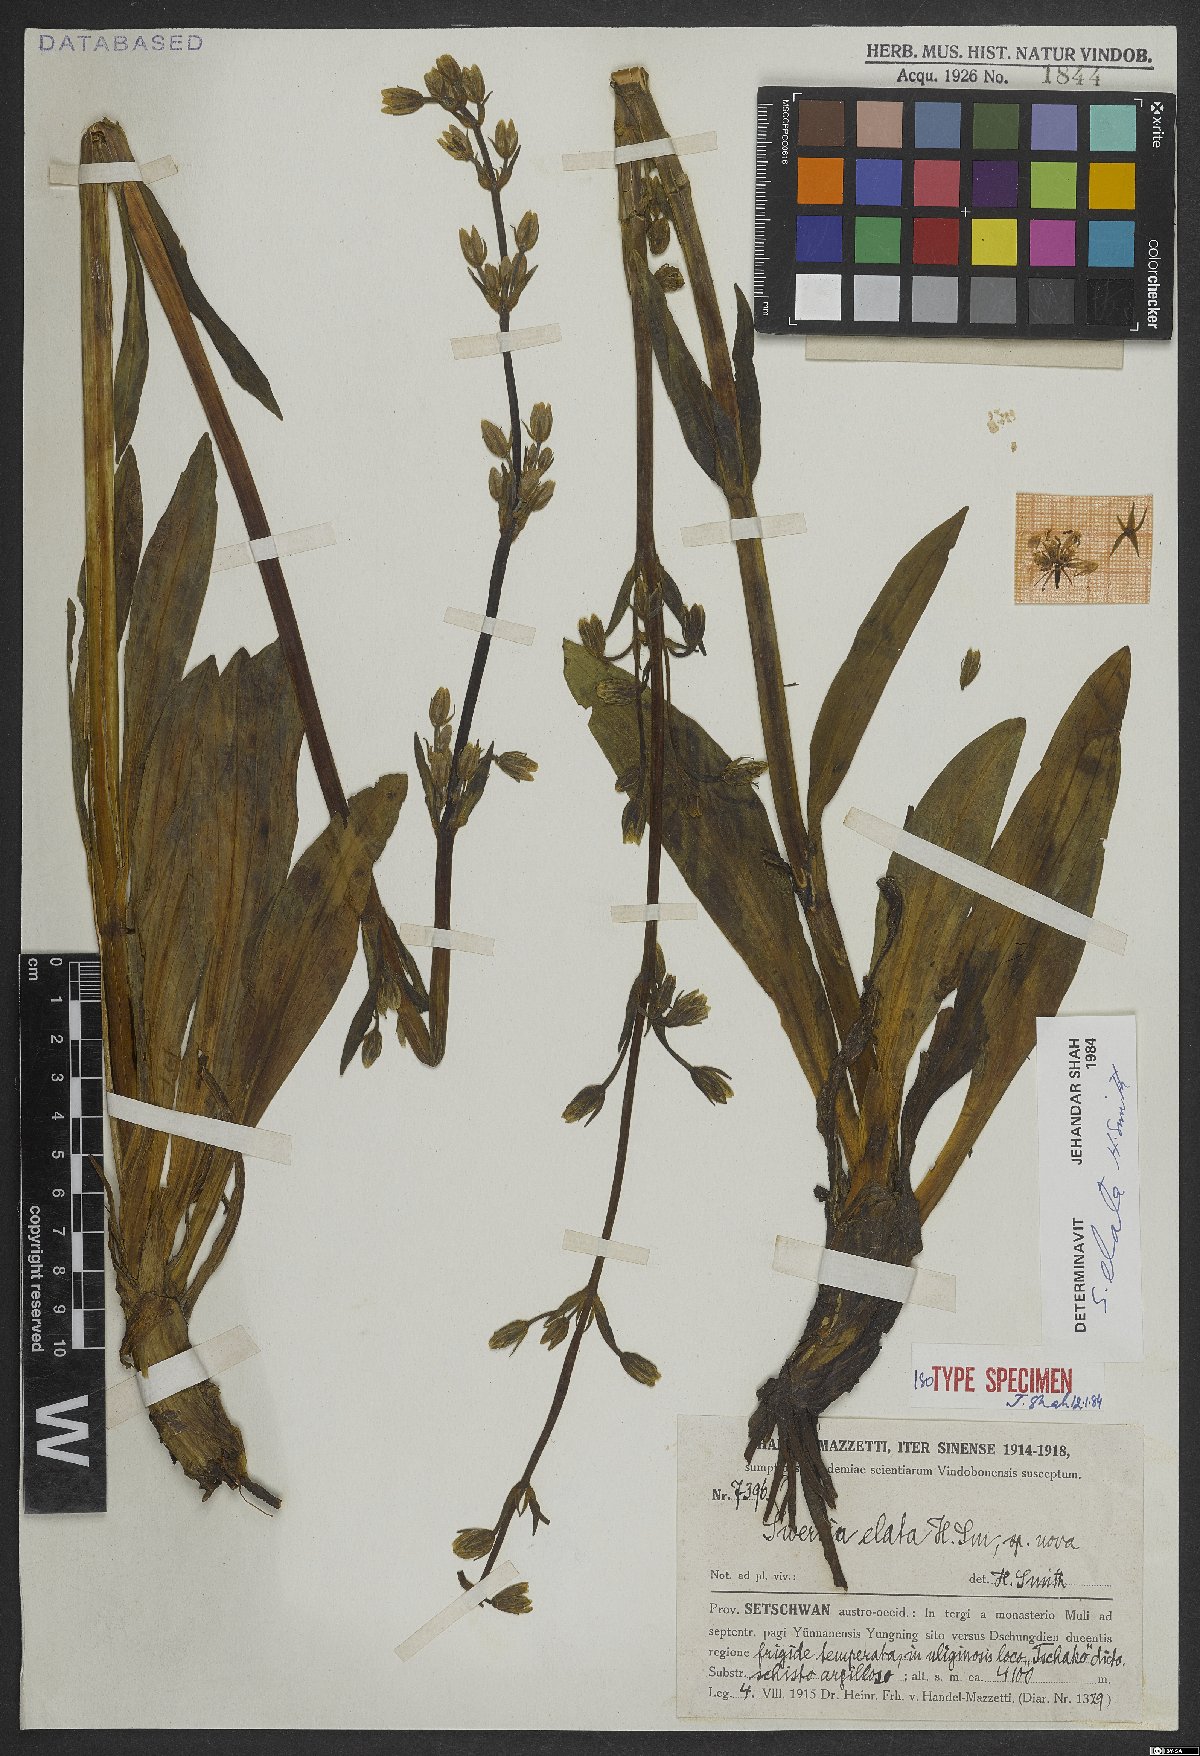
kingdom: Plantae
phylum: Tracheophyta
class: Magnoliopsida
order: Gentianales
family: Gentianaceae
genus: Swertia
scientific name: Swertia elata
